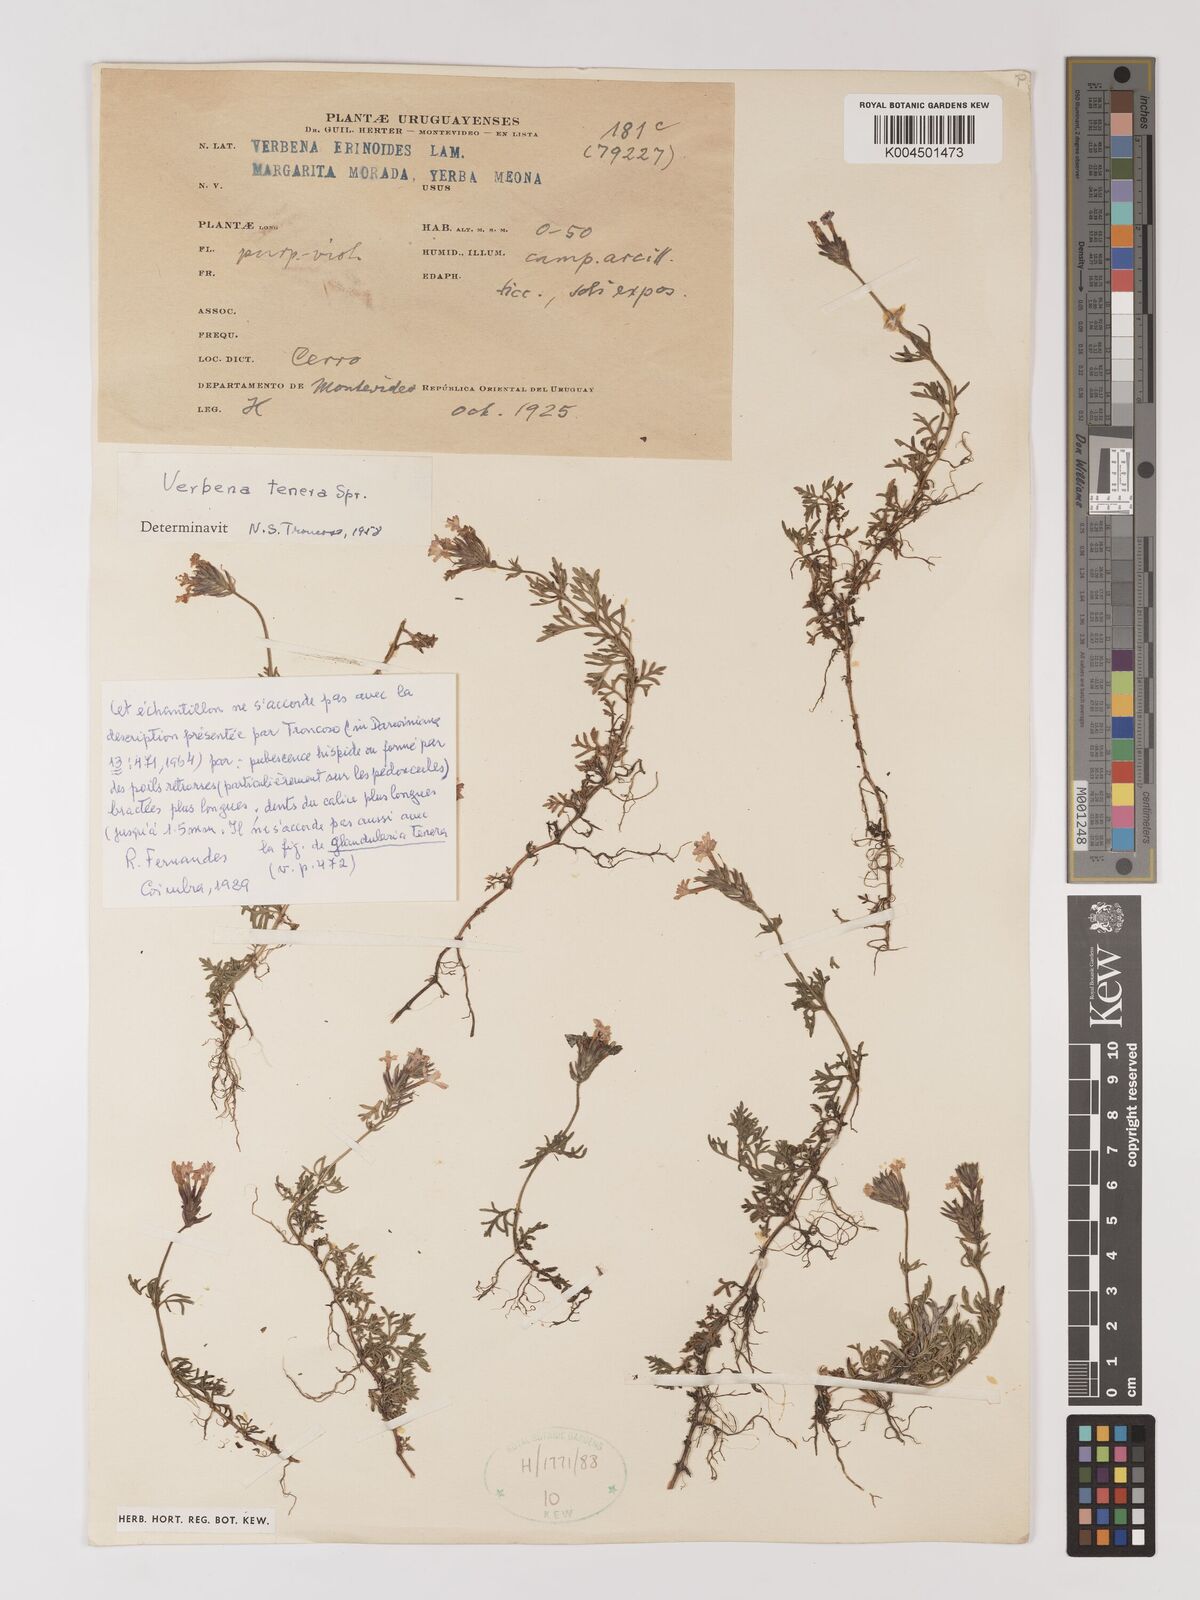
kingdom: Plantae
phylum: Tracheophyta
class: Magnoliopsida
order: Lamiales
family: Verbenaceae
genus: Verbena
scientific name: Verbena tenera
